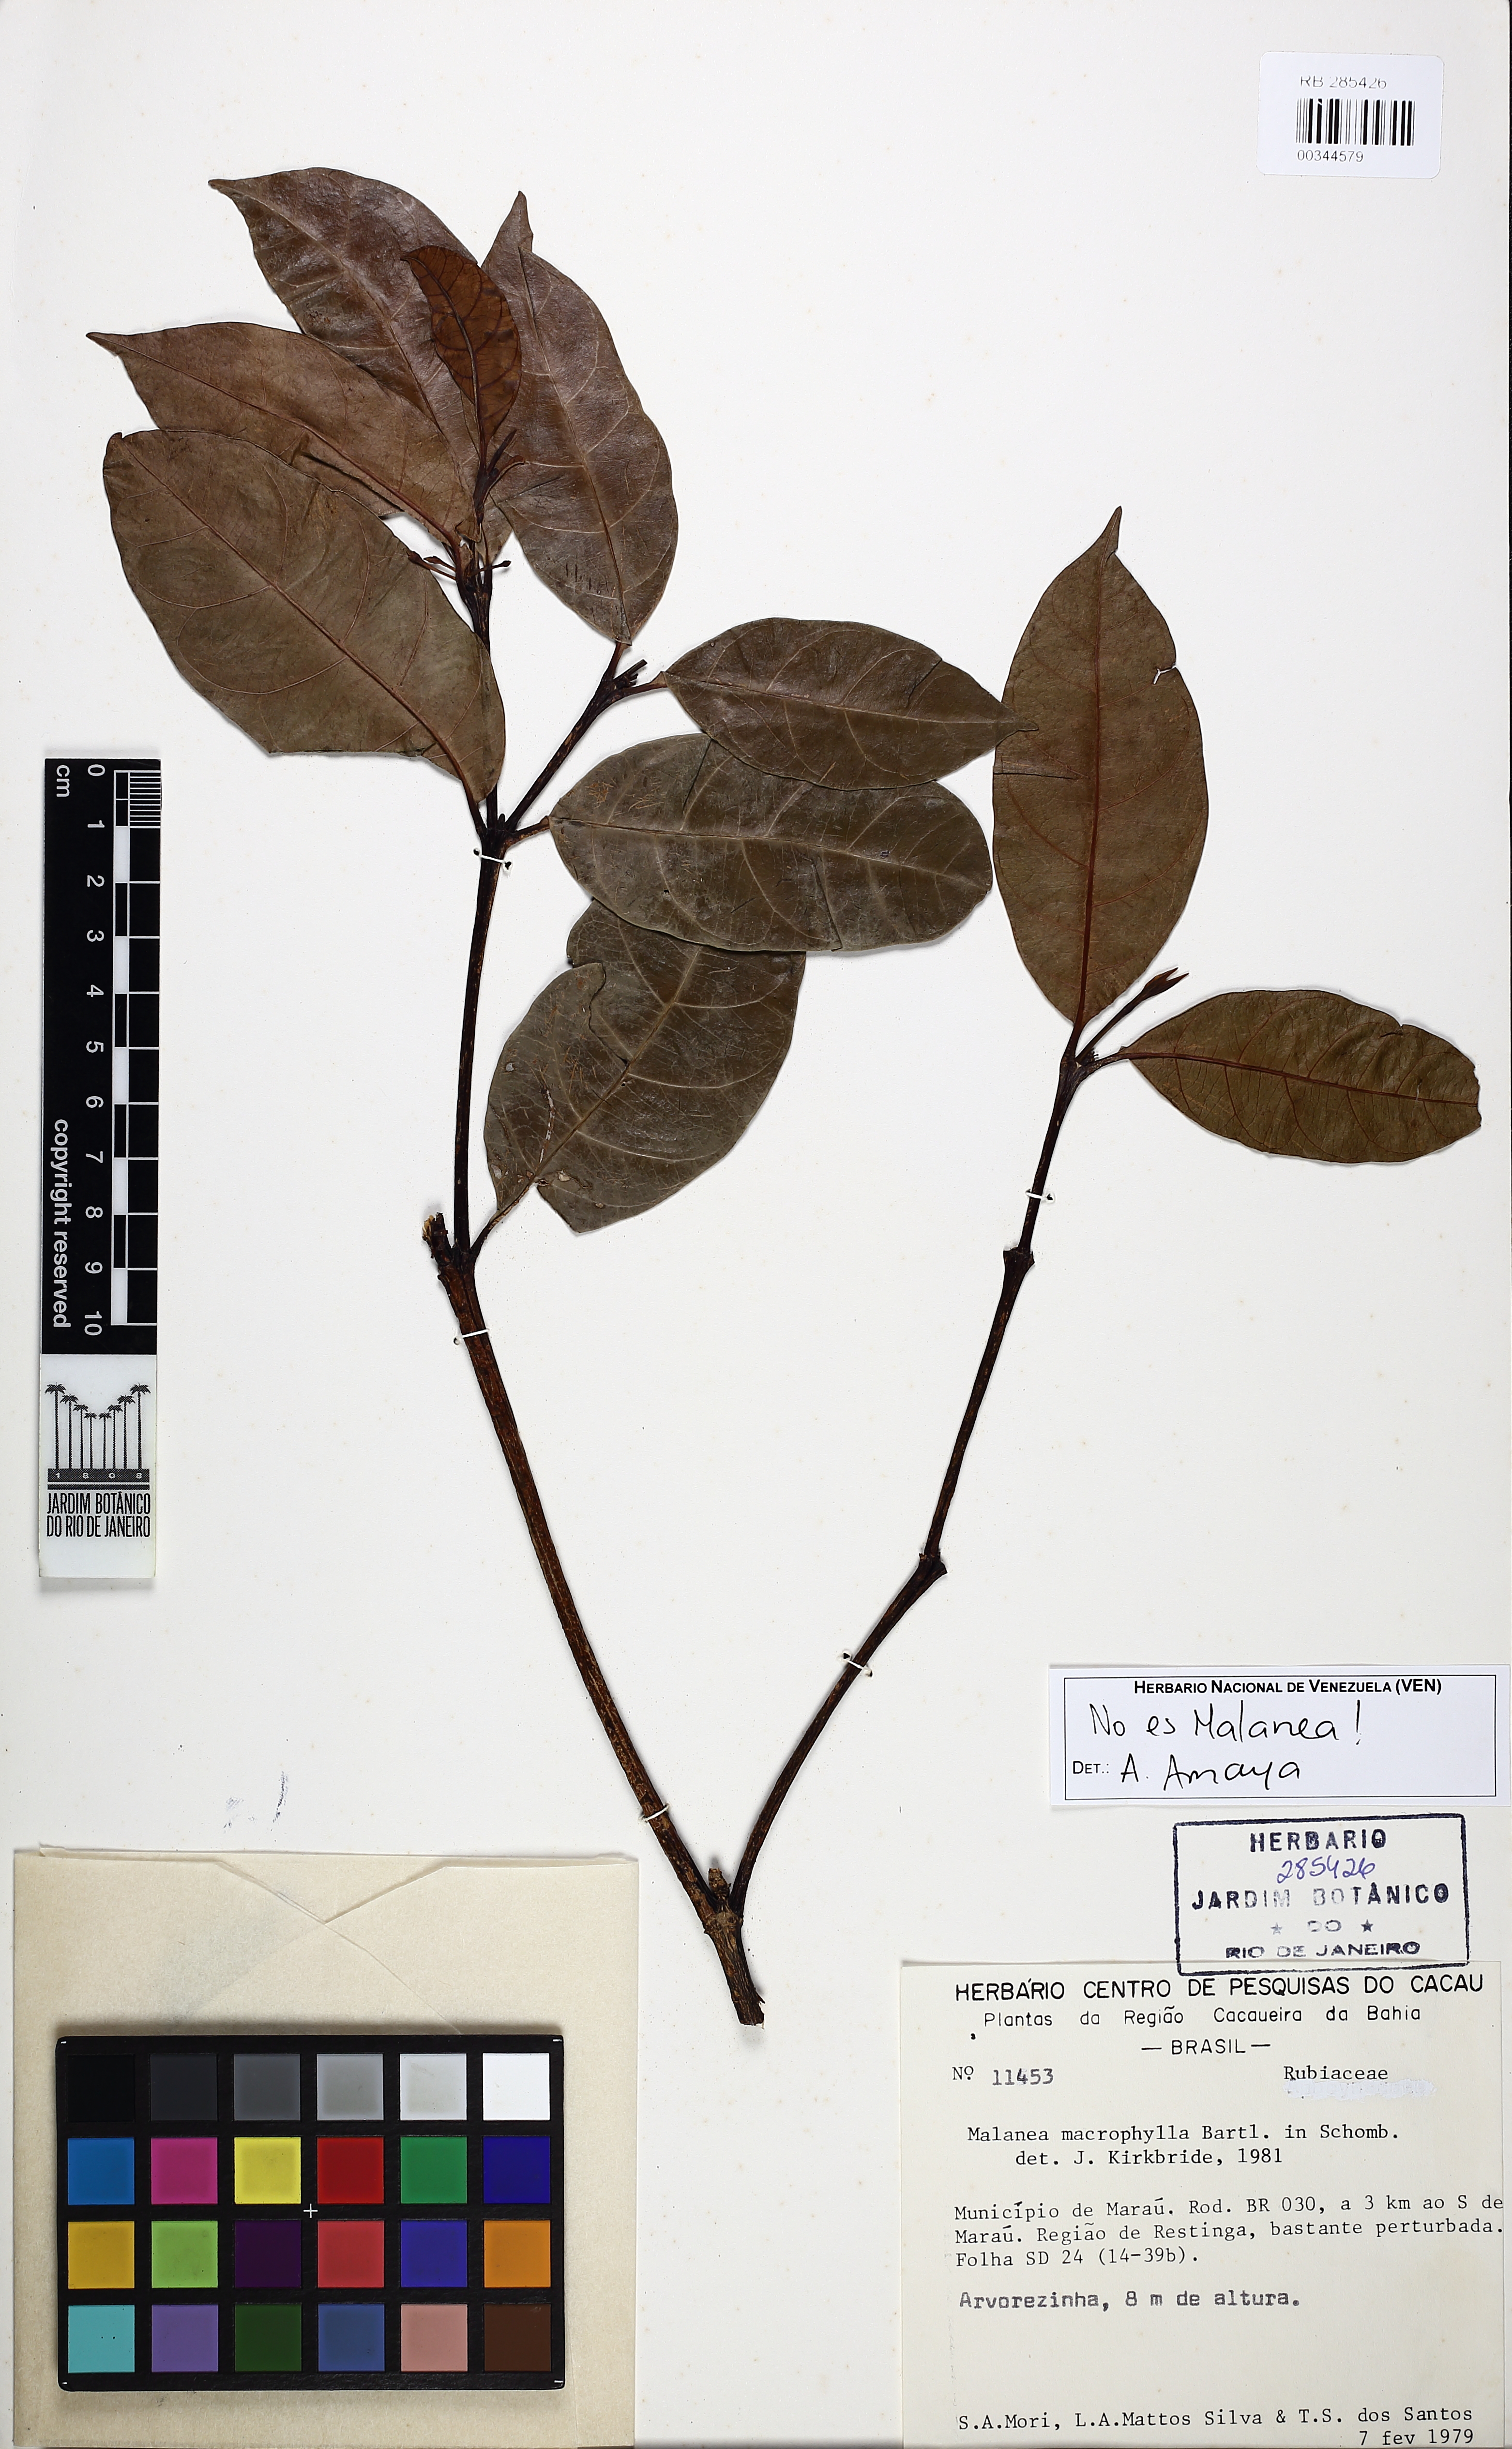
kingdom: Plantae
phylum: Tracheophyta
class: Magnoliopsida
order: Gentianales
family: Rubiaceae
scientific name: Rubiaceae
